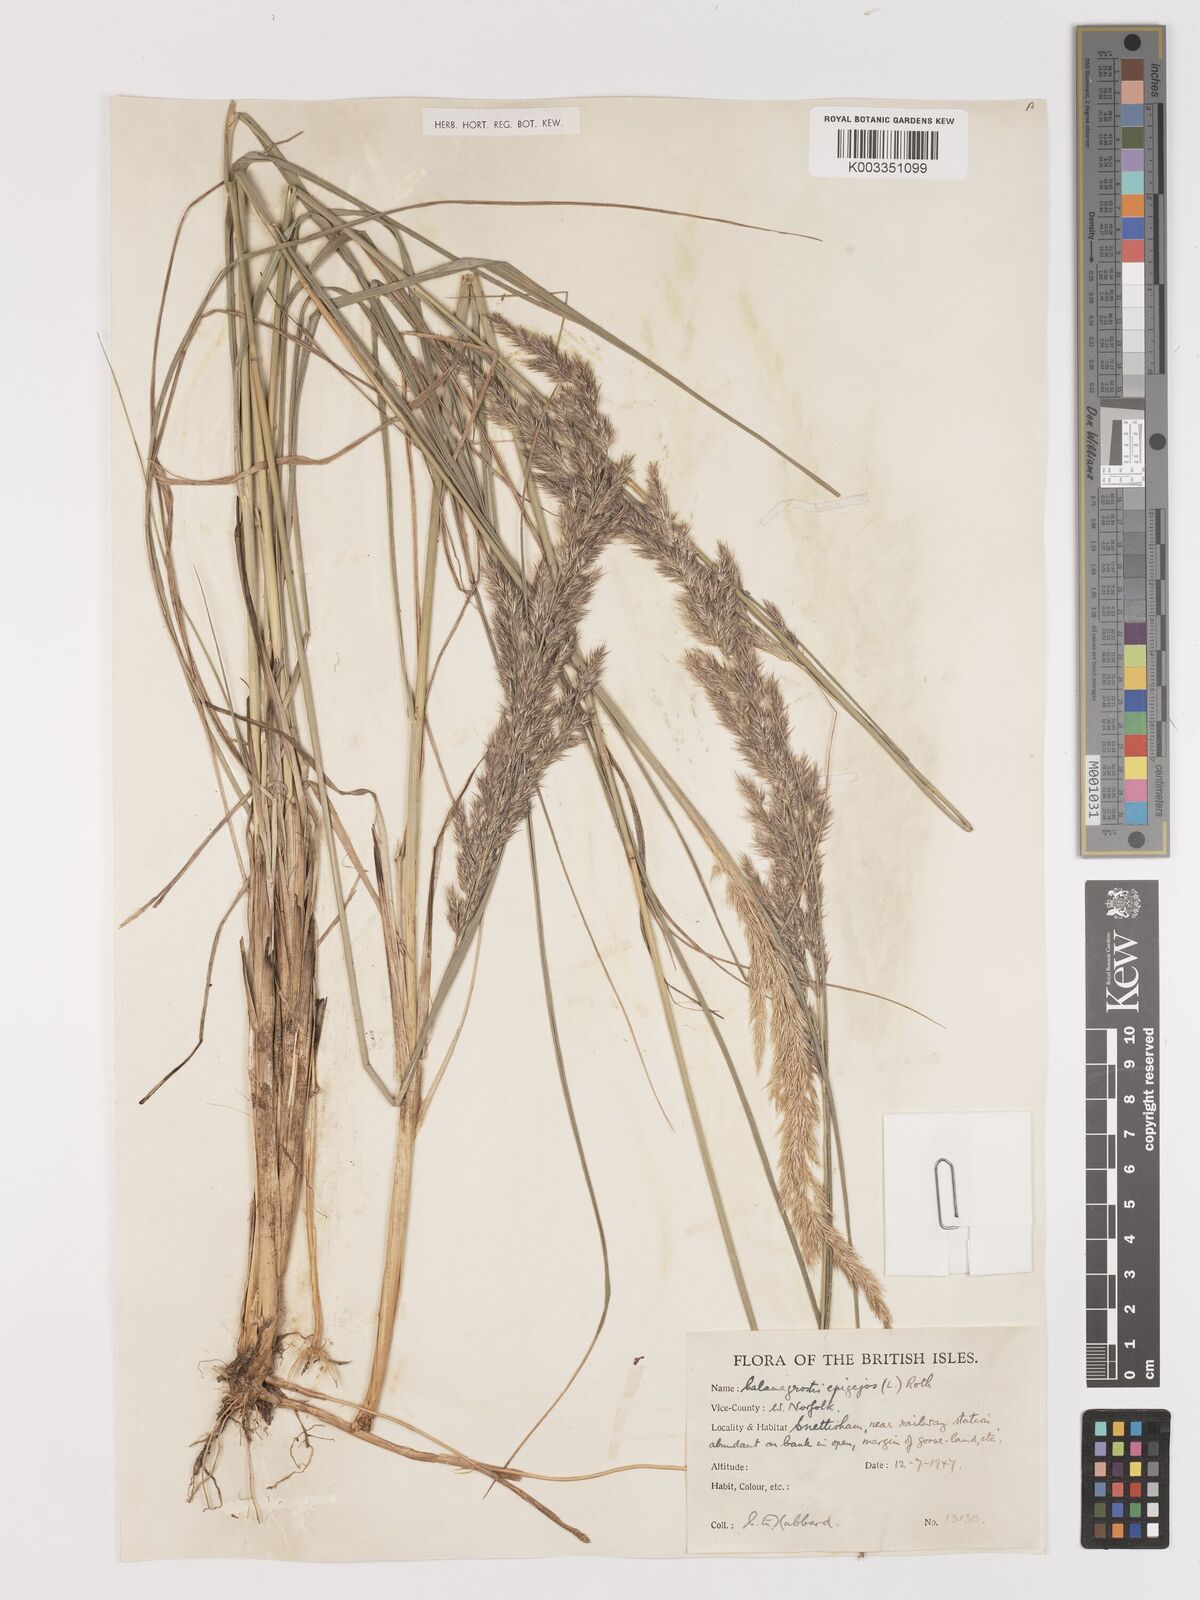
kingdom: Plantae
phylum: Tracheophyta
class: Liliopsida
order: Poales
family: Poaceae
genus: Calamagrostis
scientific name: Calamagrostis
